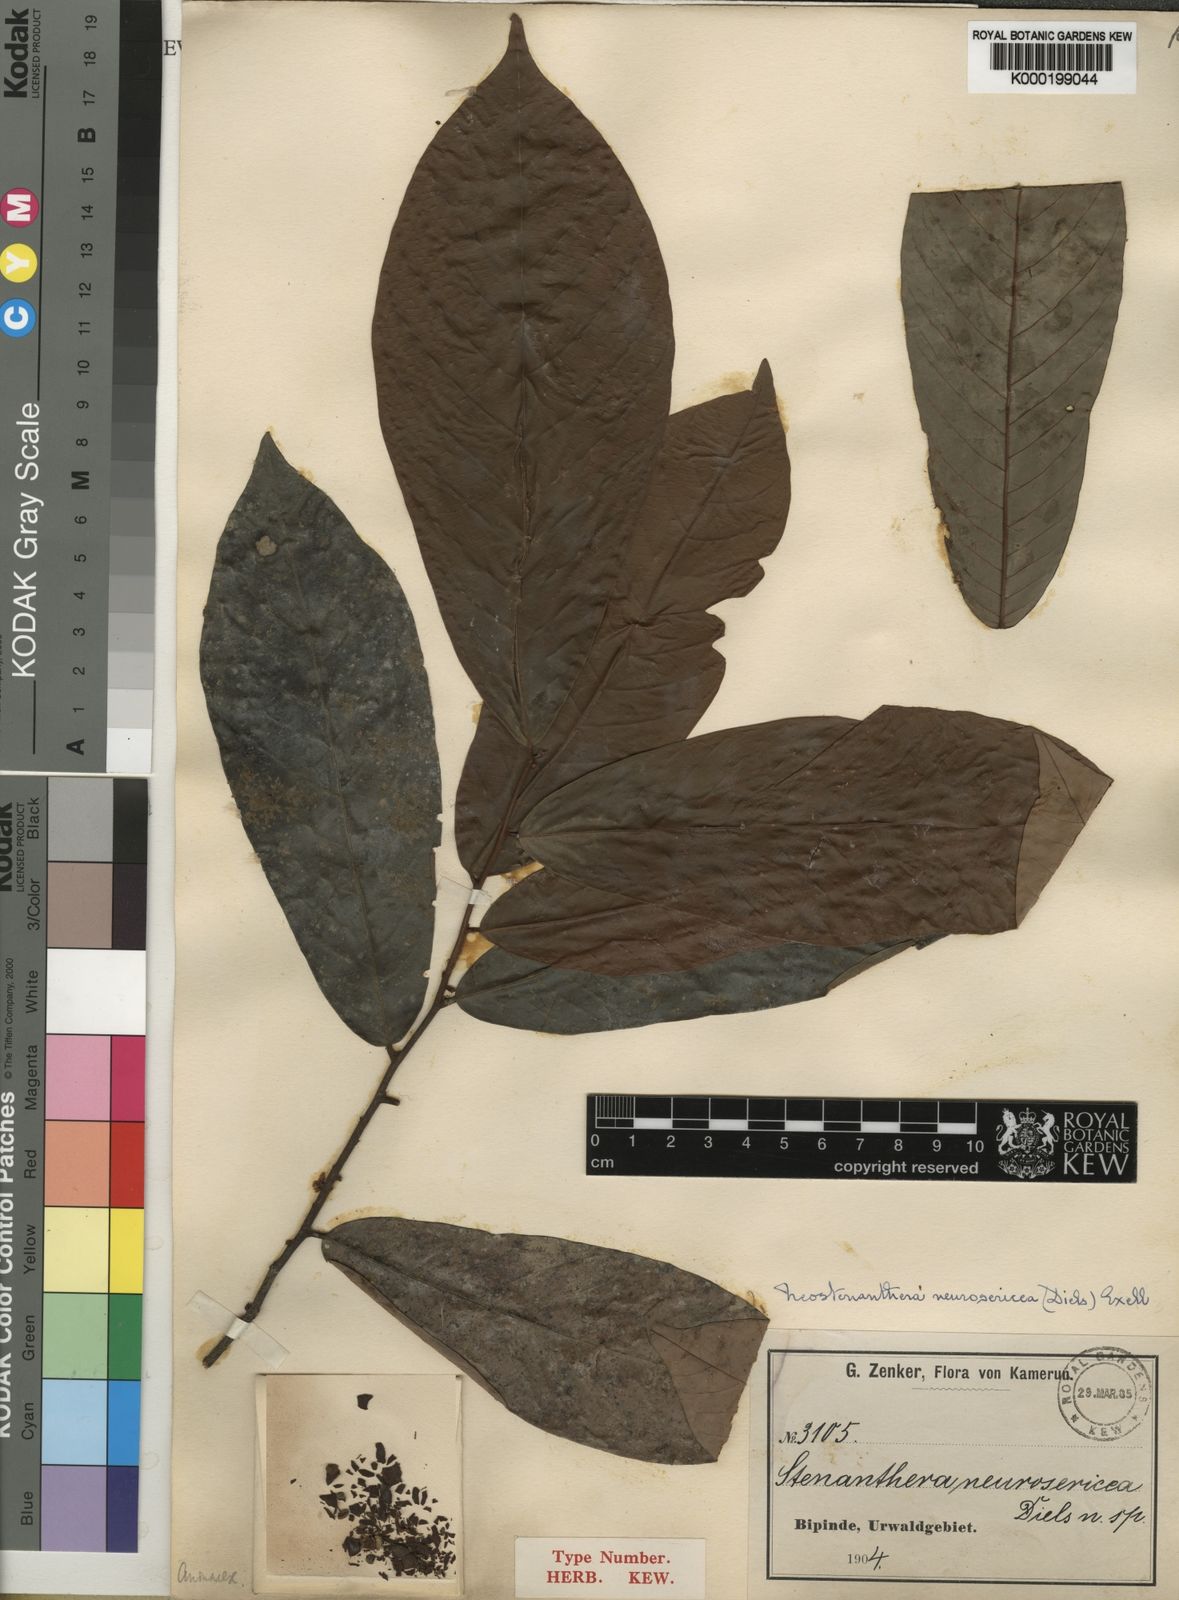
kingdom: Plantae
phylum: Tracheophyta
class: Magnoliopsida
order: Magnoliales
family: Annonaceae
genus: Neostenanthera
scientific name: Neostenanthera neurosericea
